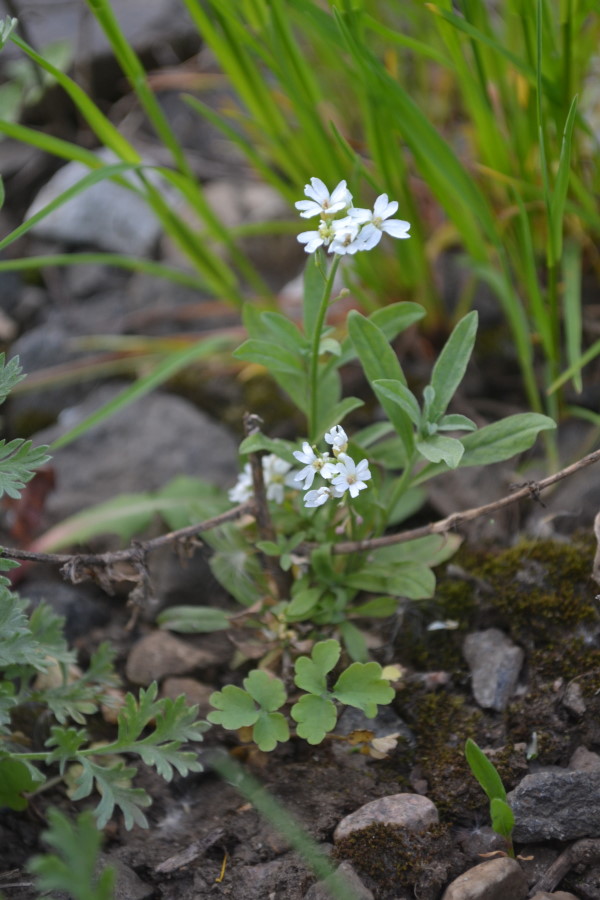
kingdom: Plantae
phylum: Tracheophyta
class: Magnoliopsida
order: Brassicales
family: Brassicaceae
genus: Berteroa
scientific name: Berteroa incana
